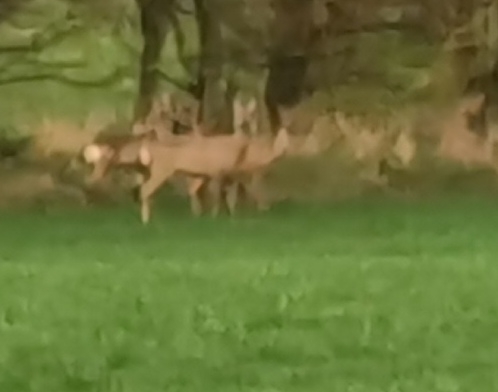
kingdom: Animalia
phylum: Chordata
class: Mammalia
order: Artiodactyla
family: Cervidae
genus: Capreolus
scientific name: Capreolus capreolus
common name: Rådyr
